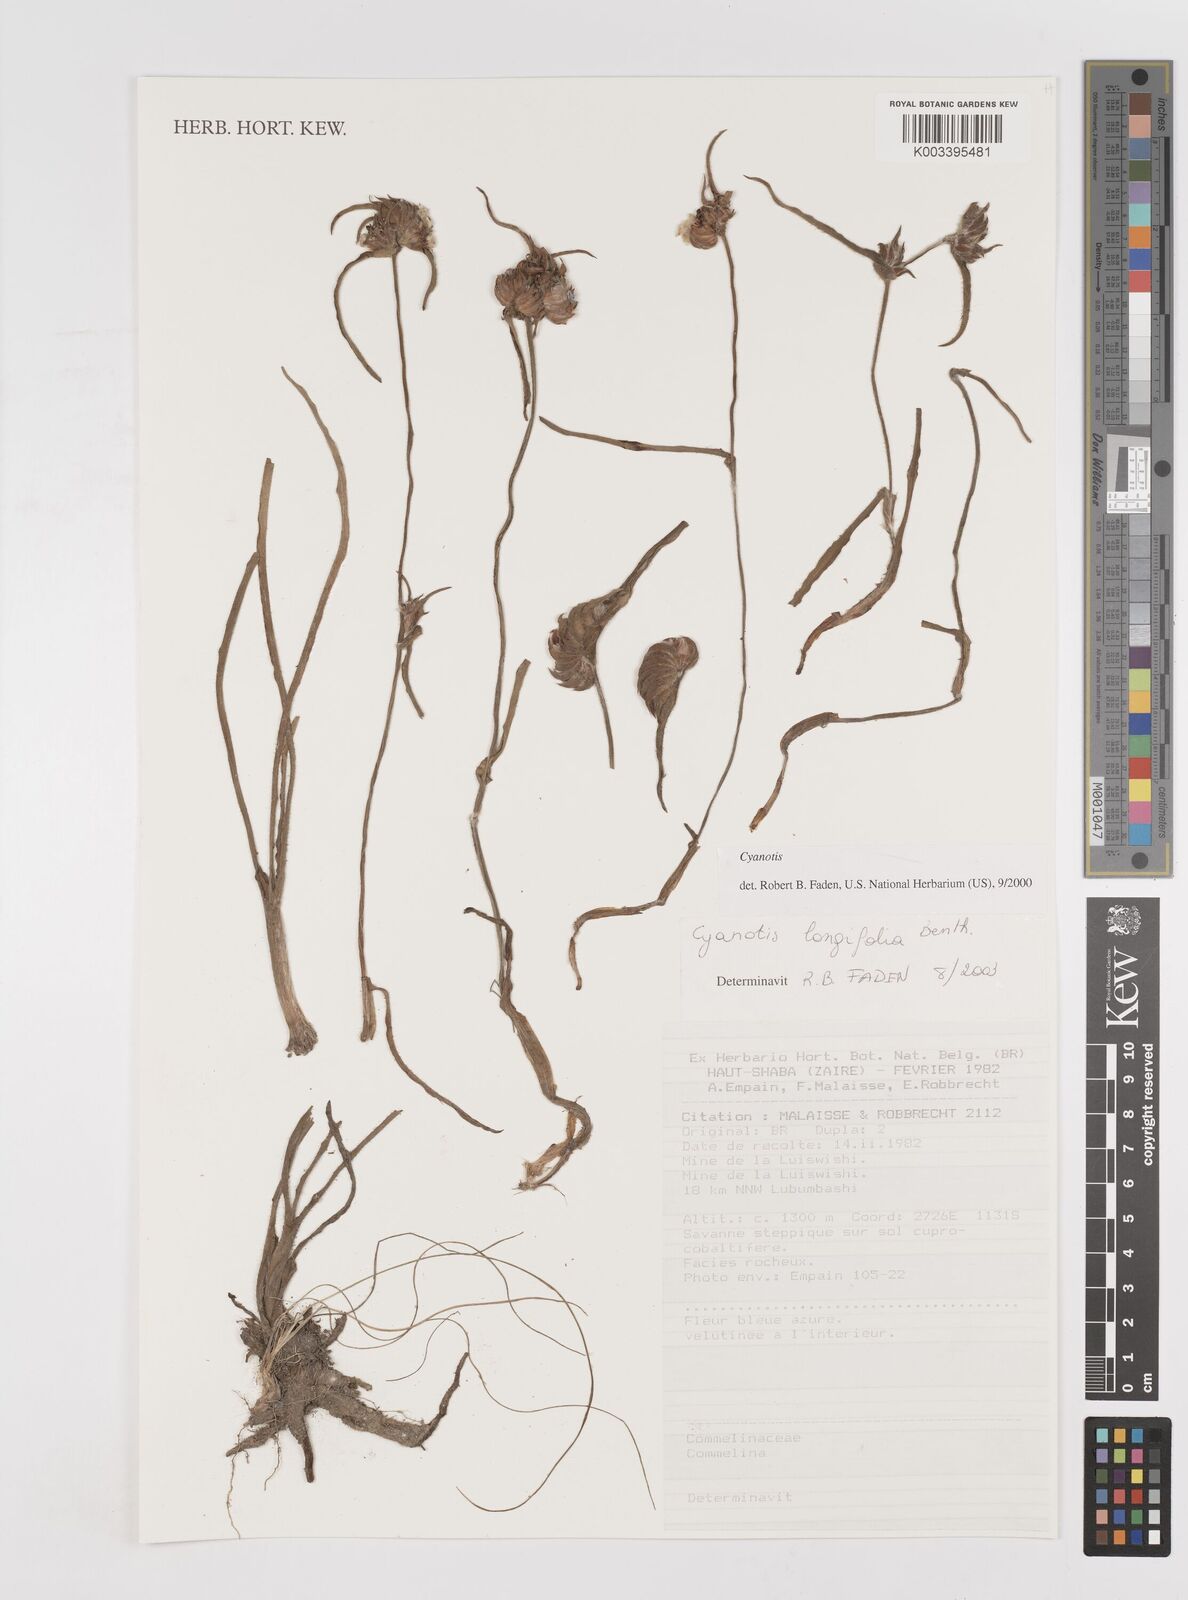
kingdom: Plantae
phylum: Tracheophyta
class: Liliopsida
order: Commelinales
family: Commelinaceae
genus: Cyanotis
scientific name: Cyanotis longifolia
